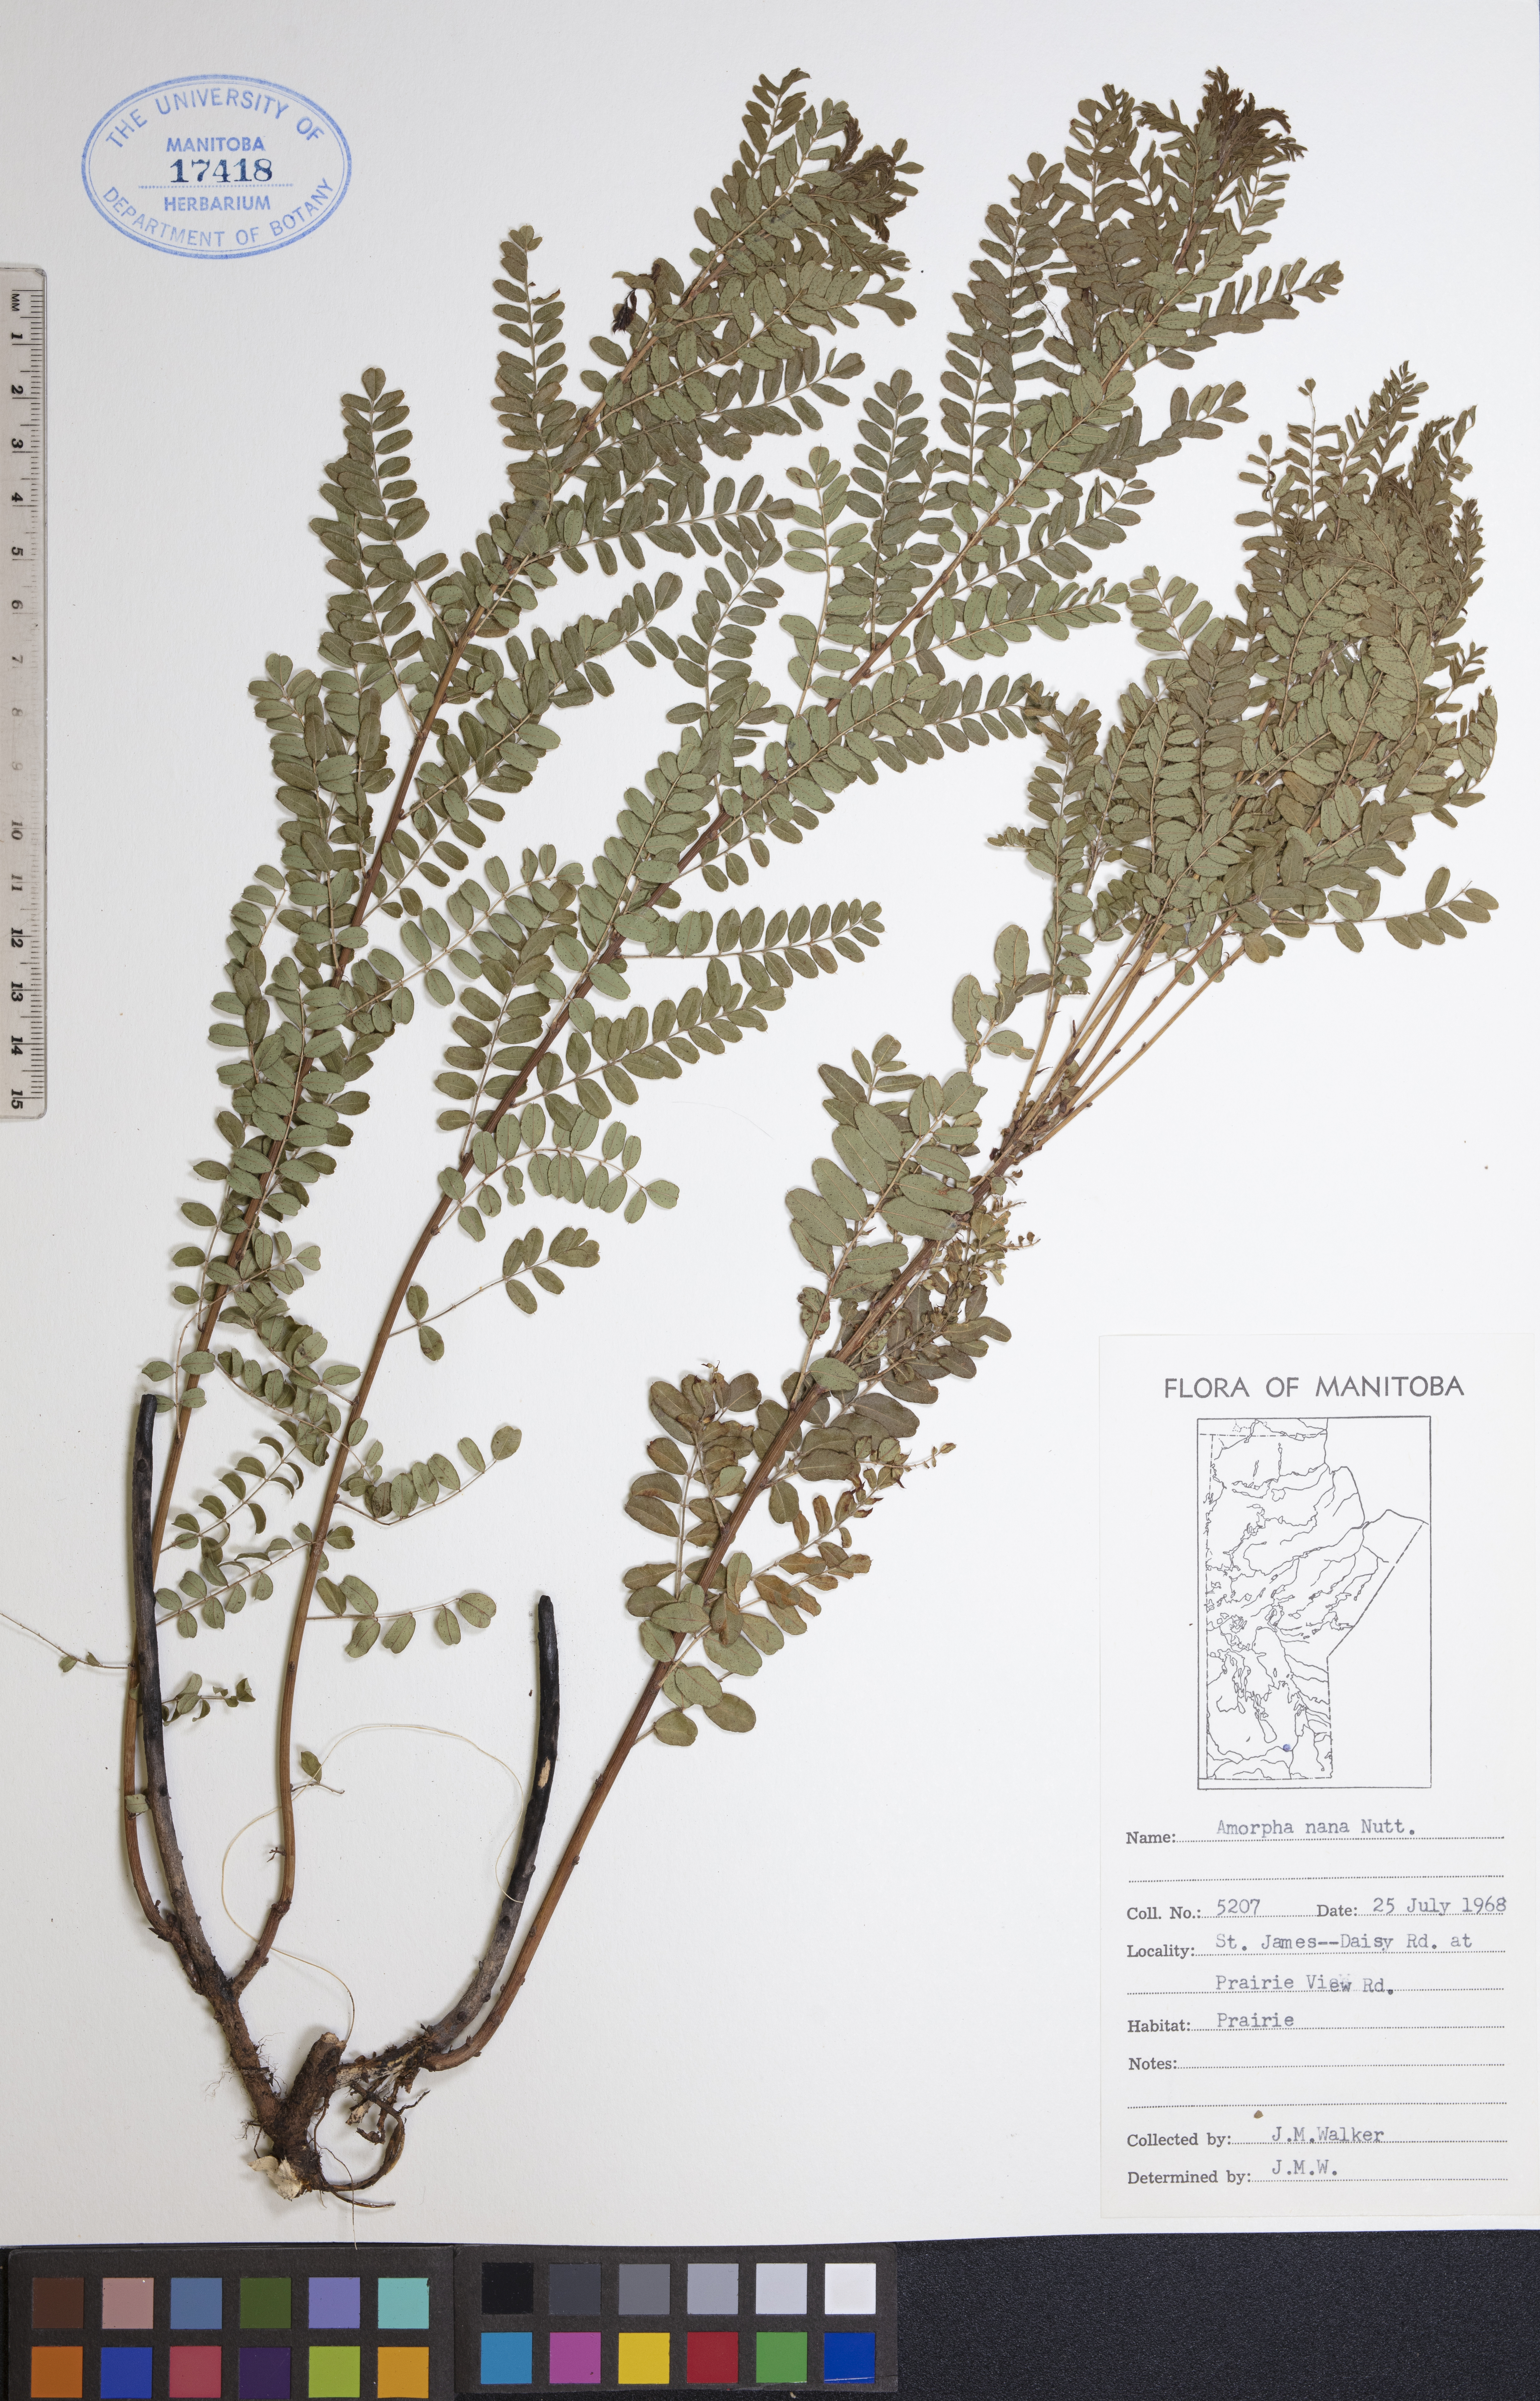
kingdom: Plantae
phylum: Tracheophyta
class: Magnoliopsida
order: Fabales
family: Fabaceae
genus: Amorpha
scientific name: Amorpha nana
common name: Fragrant false indigo
